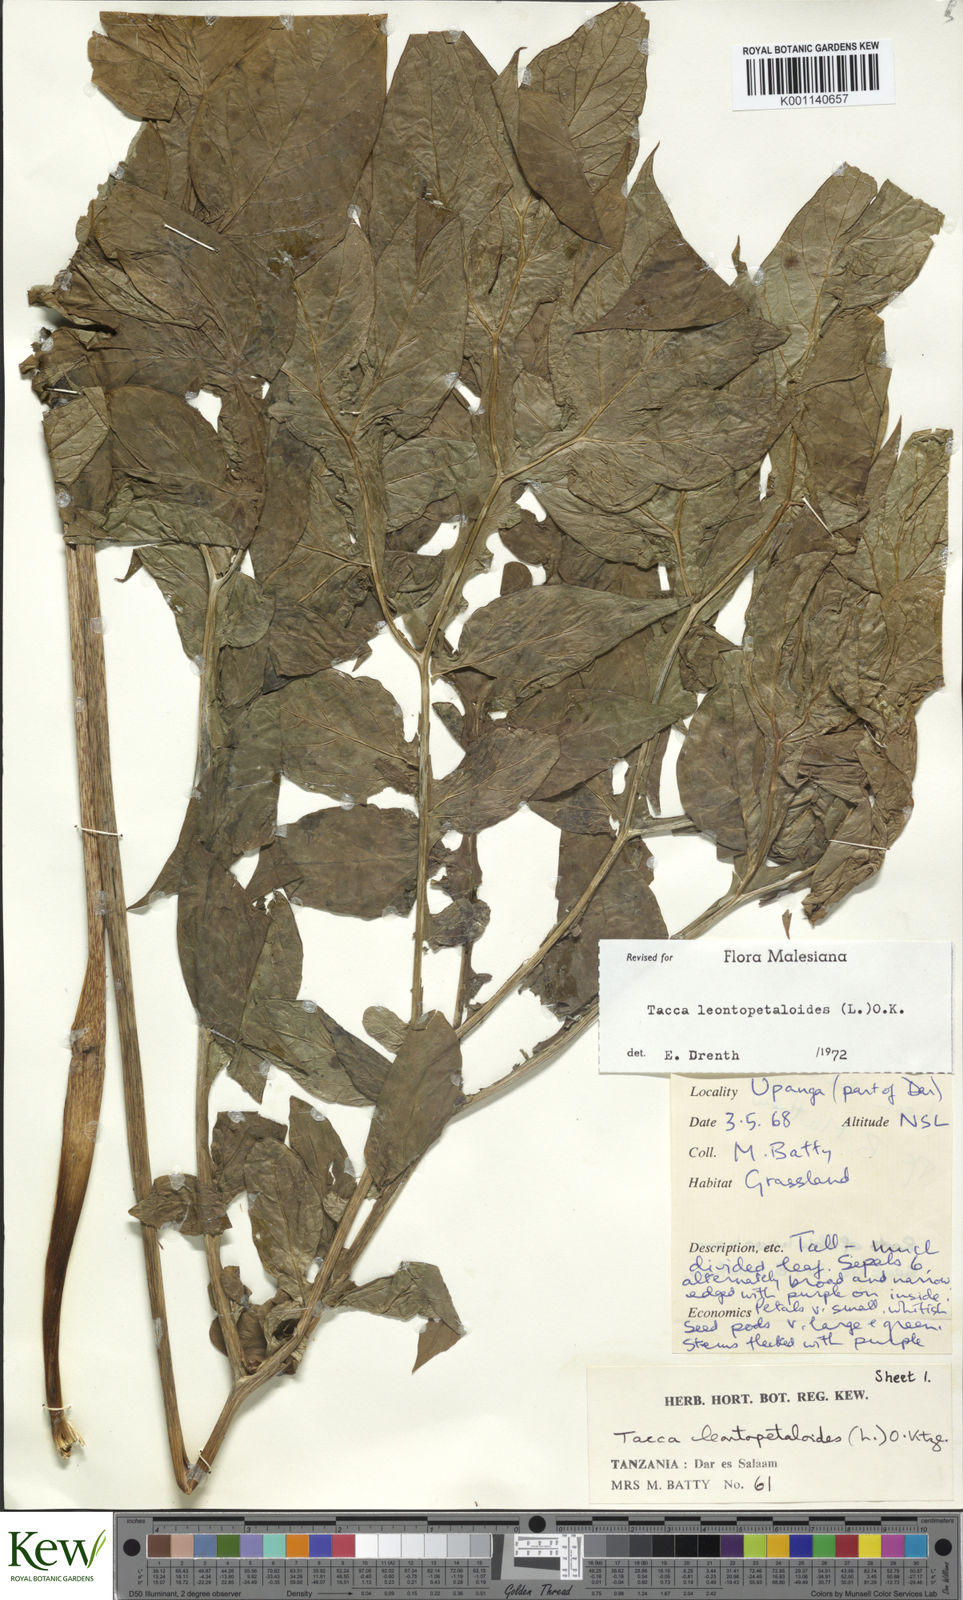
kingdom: Plantae
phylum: Tracheophyta
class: Liliopsida
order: Dioscoreales
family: Dioscoreaceae
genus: Tacca
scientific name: Tacca leontopetaloides
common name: Arrowroot
